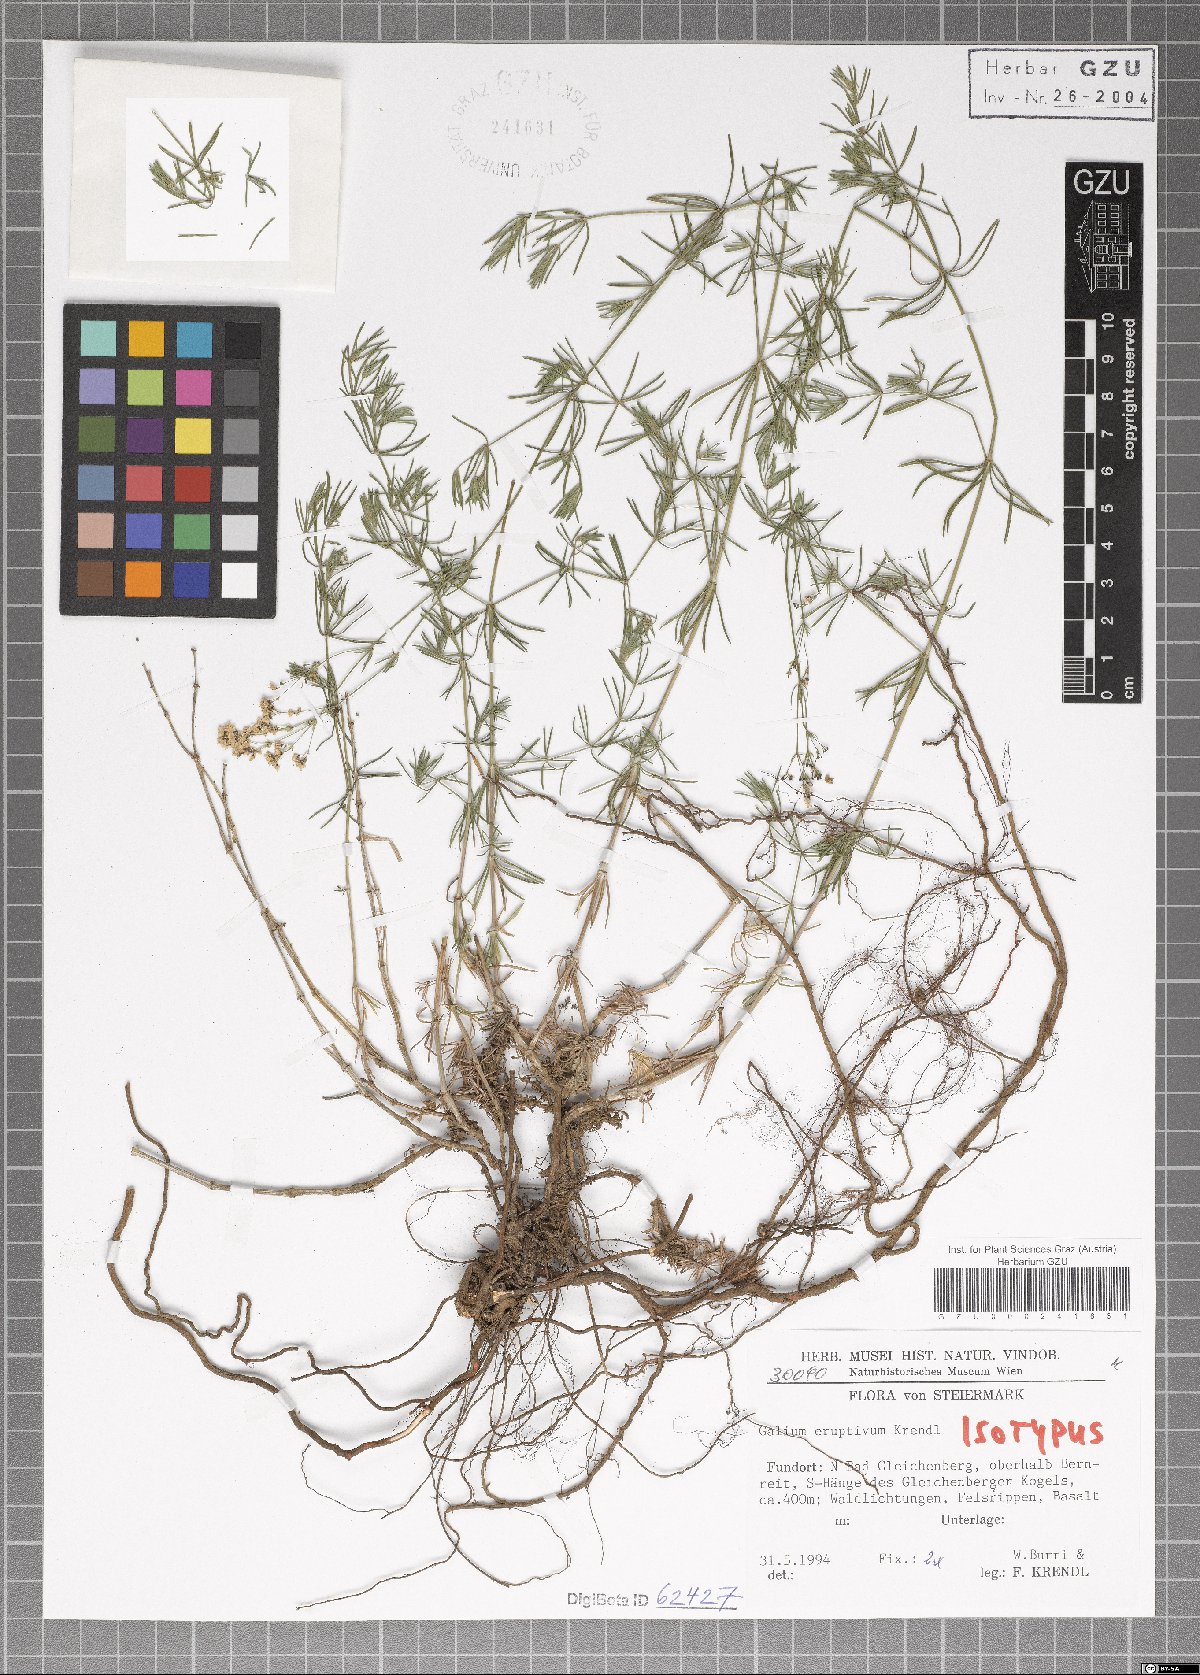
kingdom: Plantae
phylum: Tracheophyta
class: Magnoliopsida
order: Gentianales
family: Rubiaceae
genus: Galium
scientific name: Galium eruptivum
